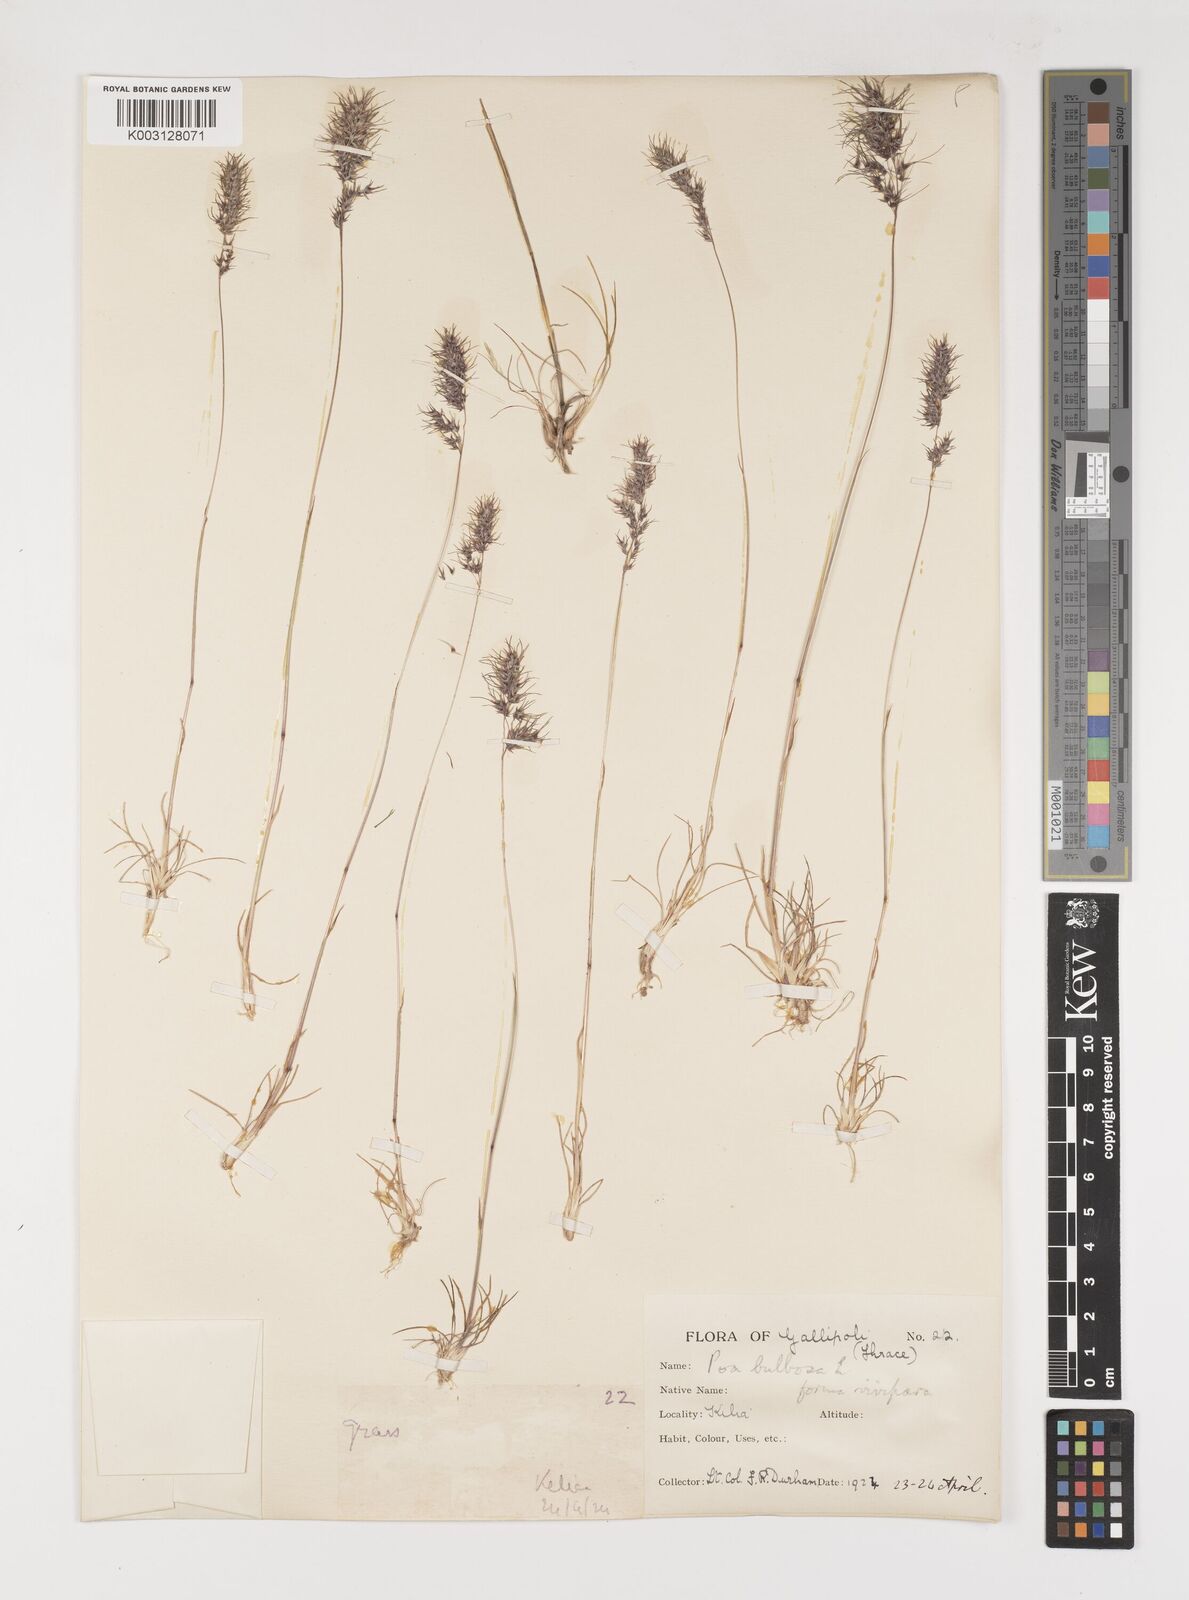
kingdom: Plantae
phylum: Tracheophyta
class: Liliopsida
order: Poales
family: Poaceae
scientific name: Poaceae
